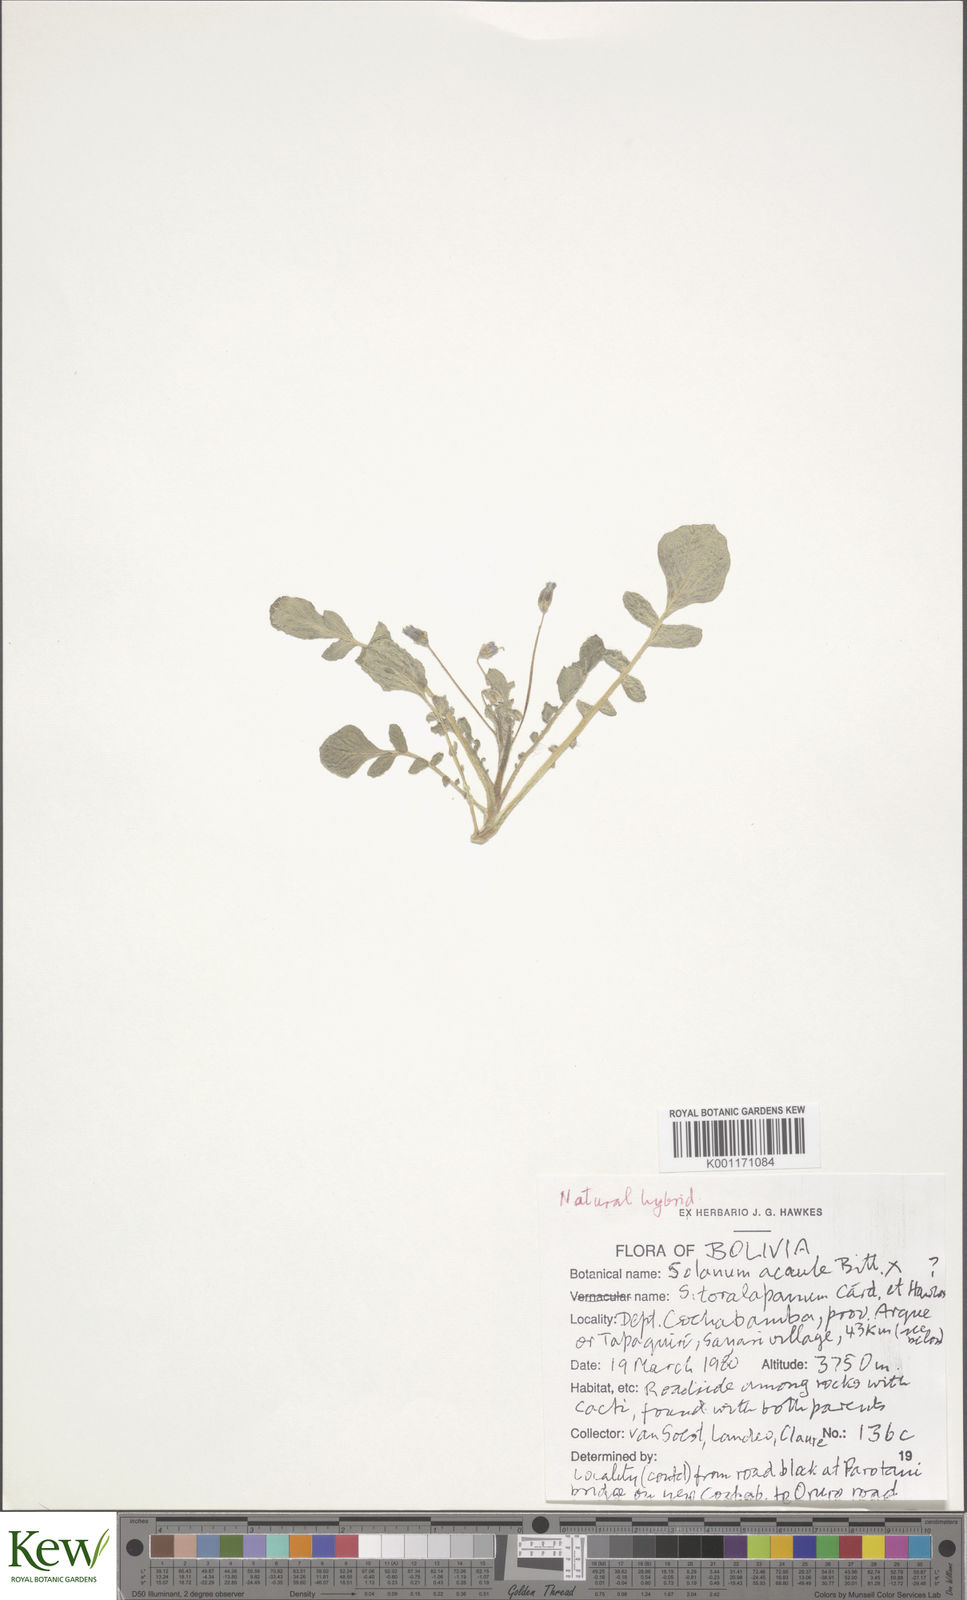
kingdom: Plantae
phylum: Tracheophyta
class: Magnoliopsida
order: Solanales
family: Solanaceae
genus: Solanum
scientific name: Solanum acaule
